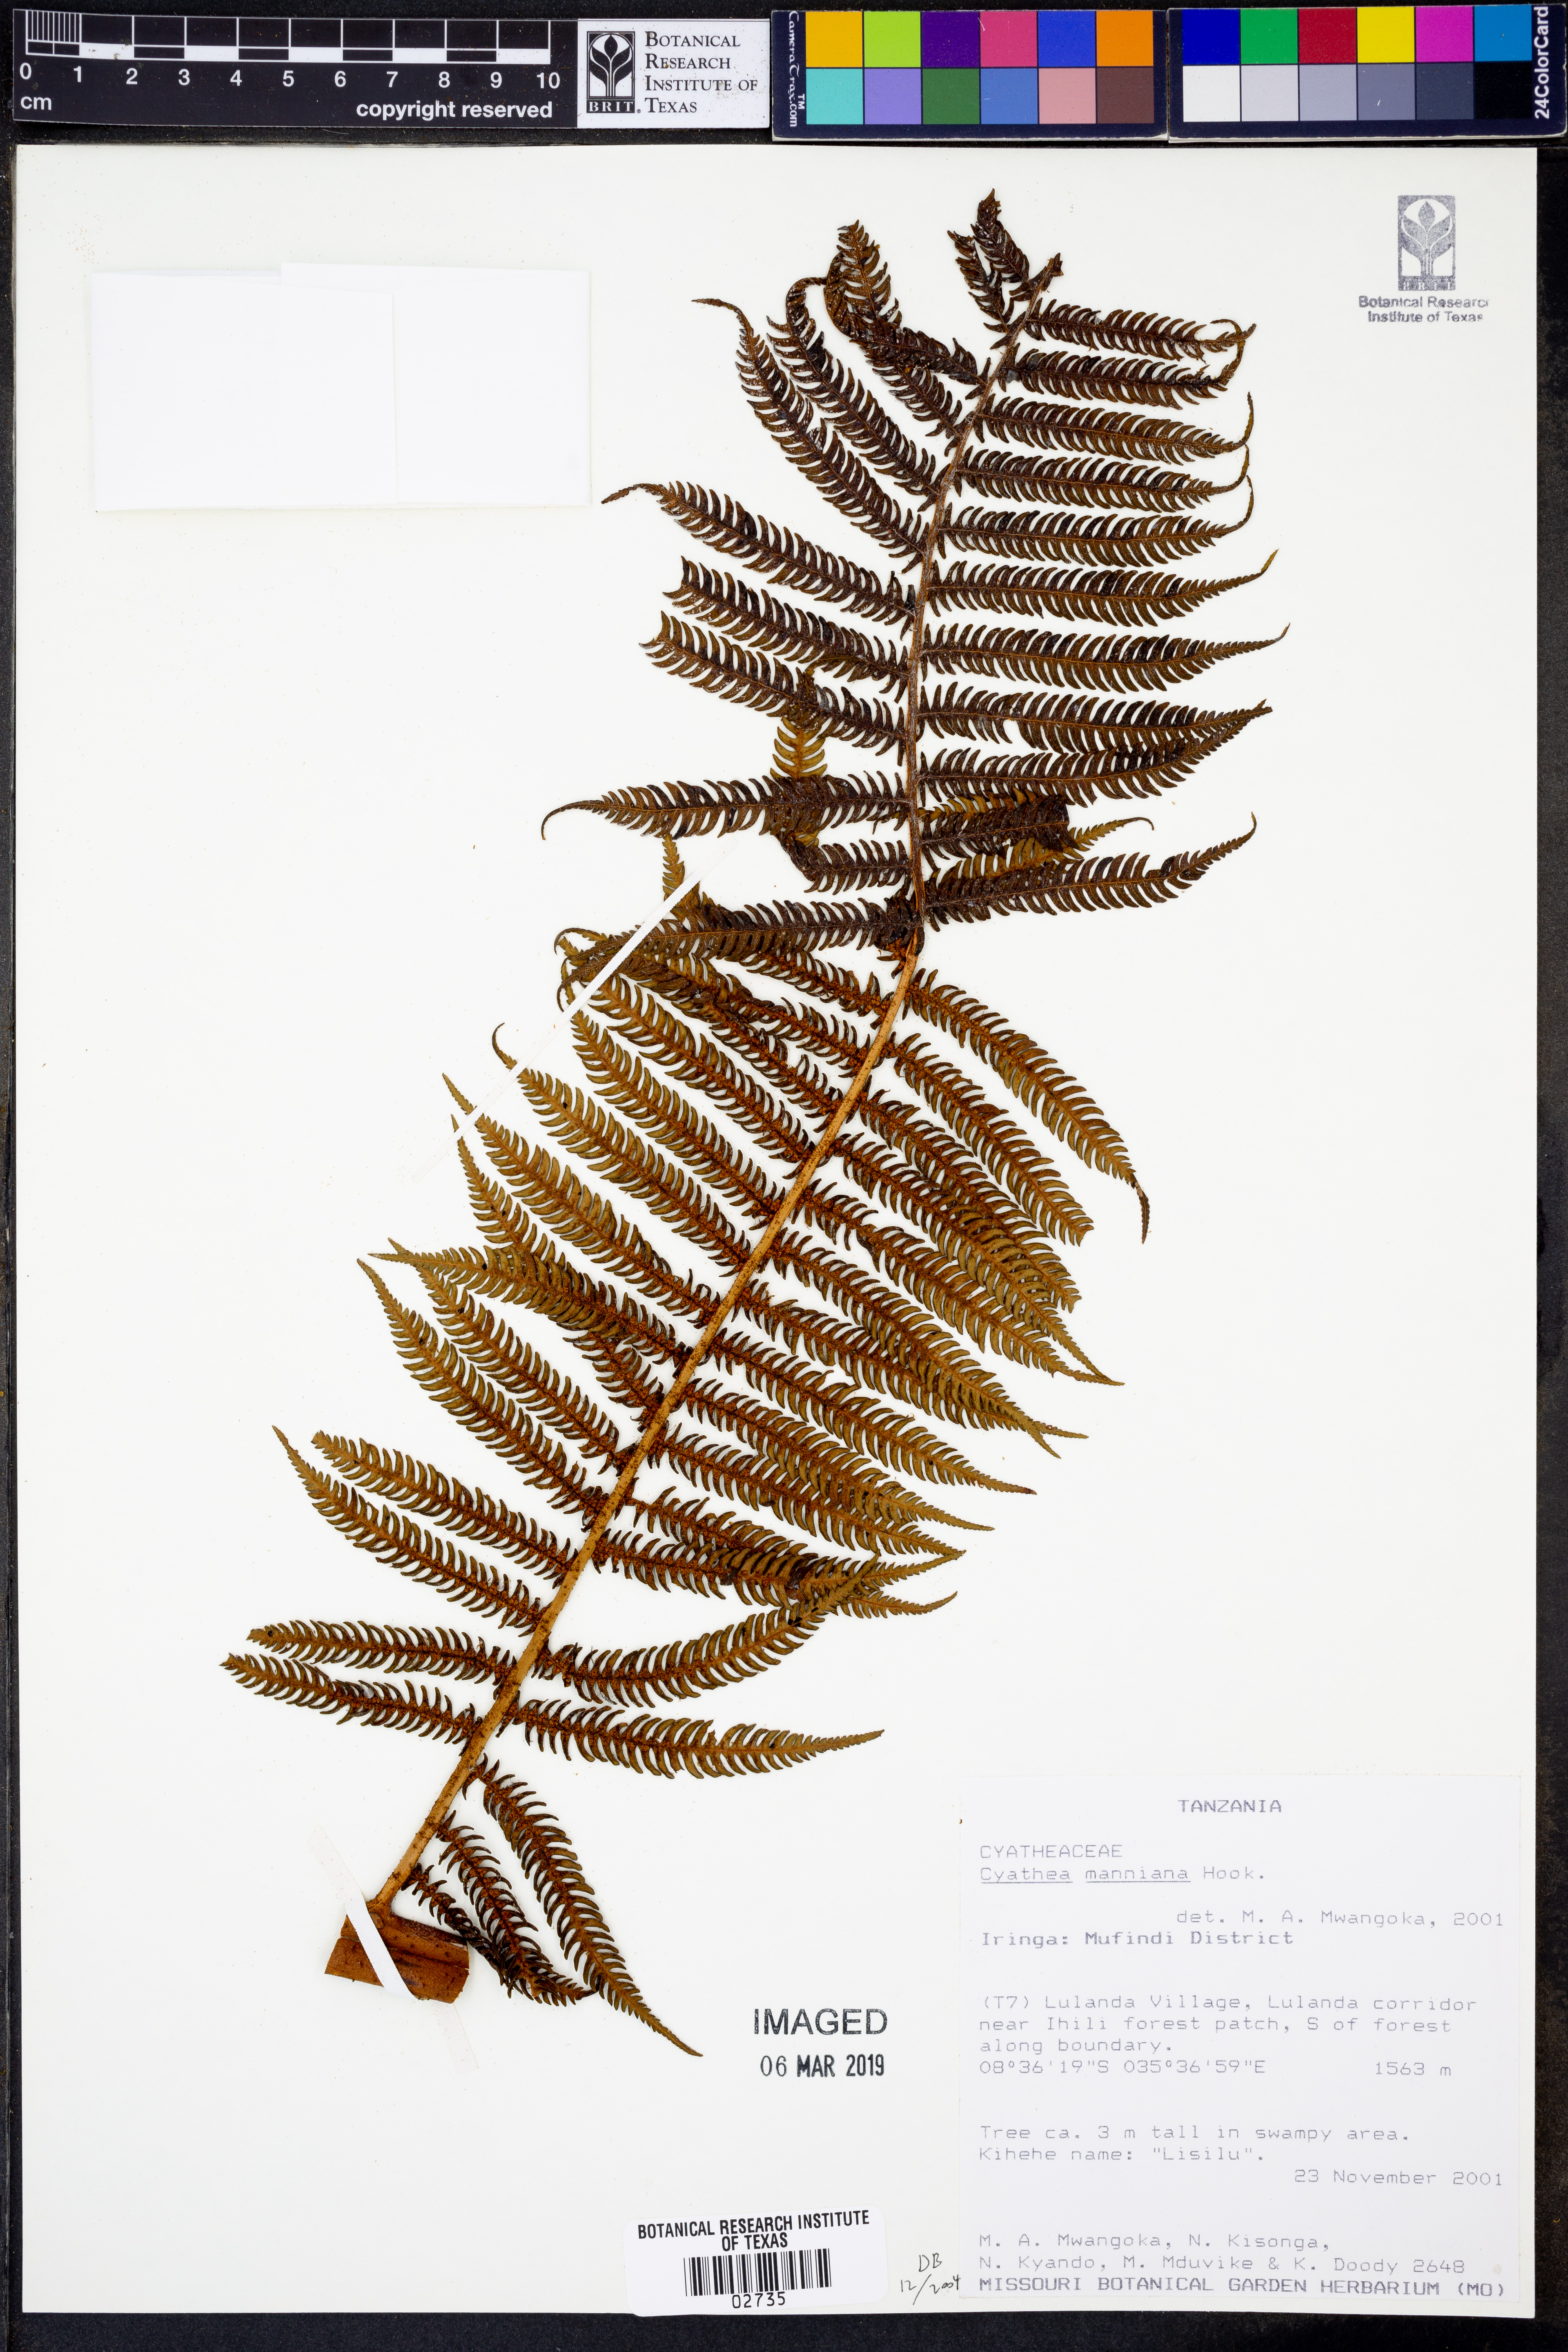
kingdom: Plantae
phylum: Tracheophyta
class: Polypodiopsida
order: Cyatheales
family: Cyatheaceae
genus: Alsophila
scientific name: Alsophila manniana
